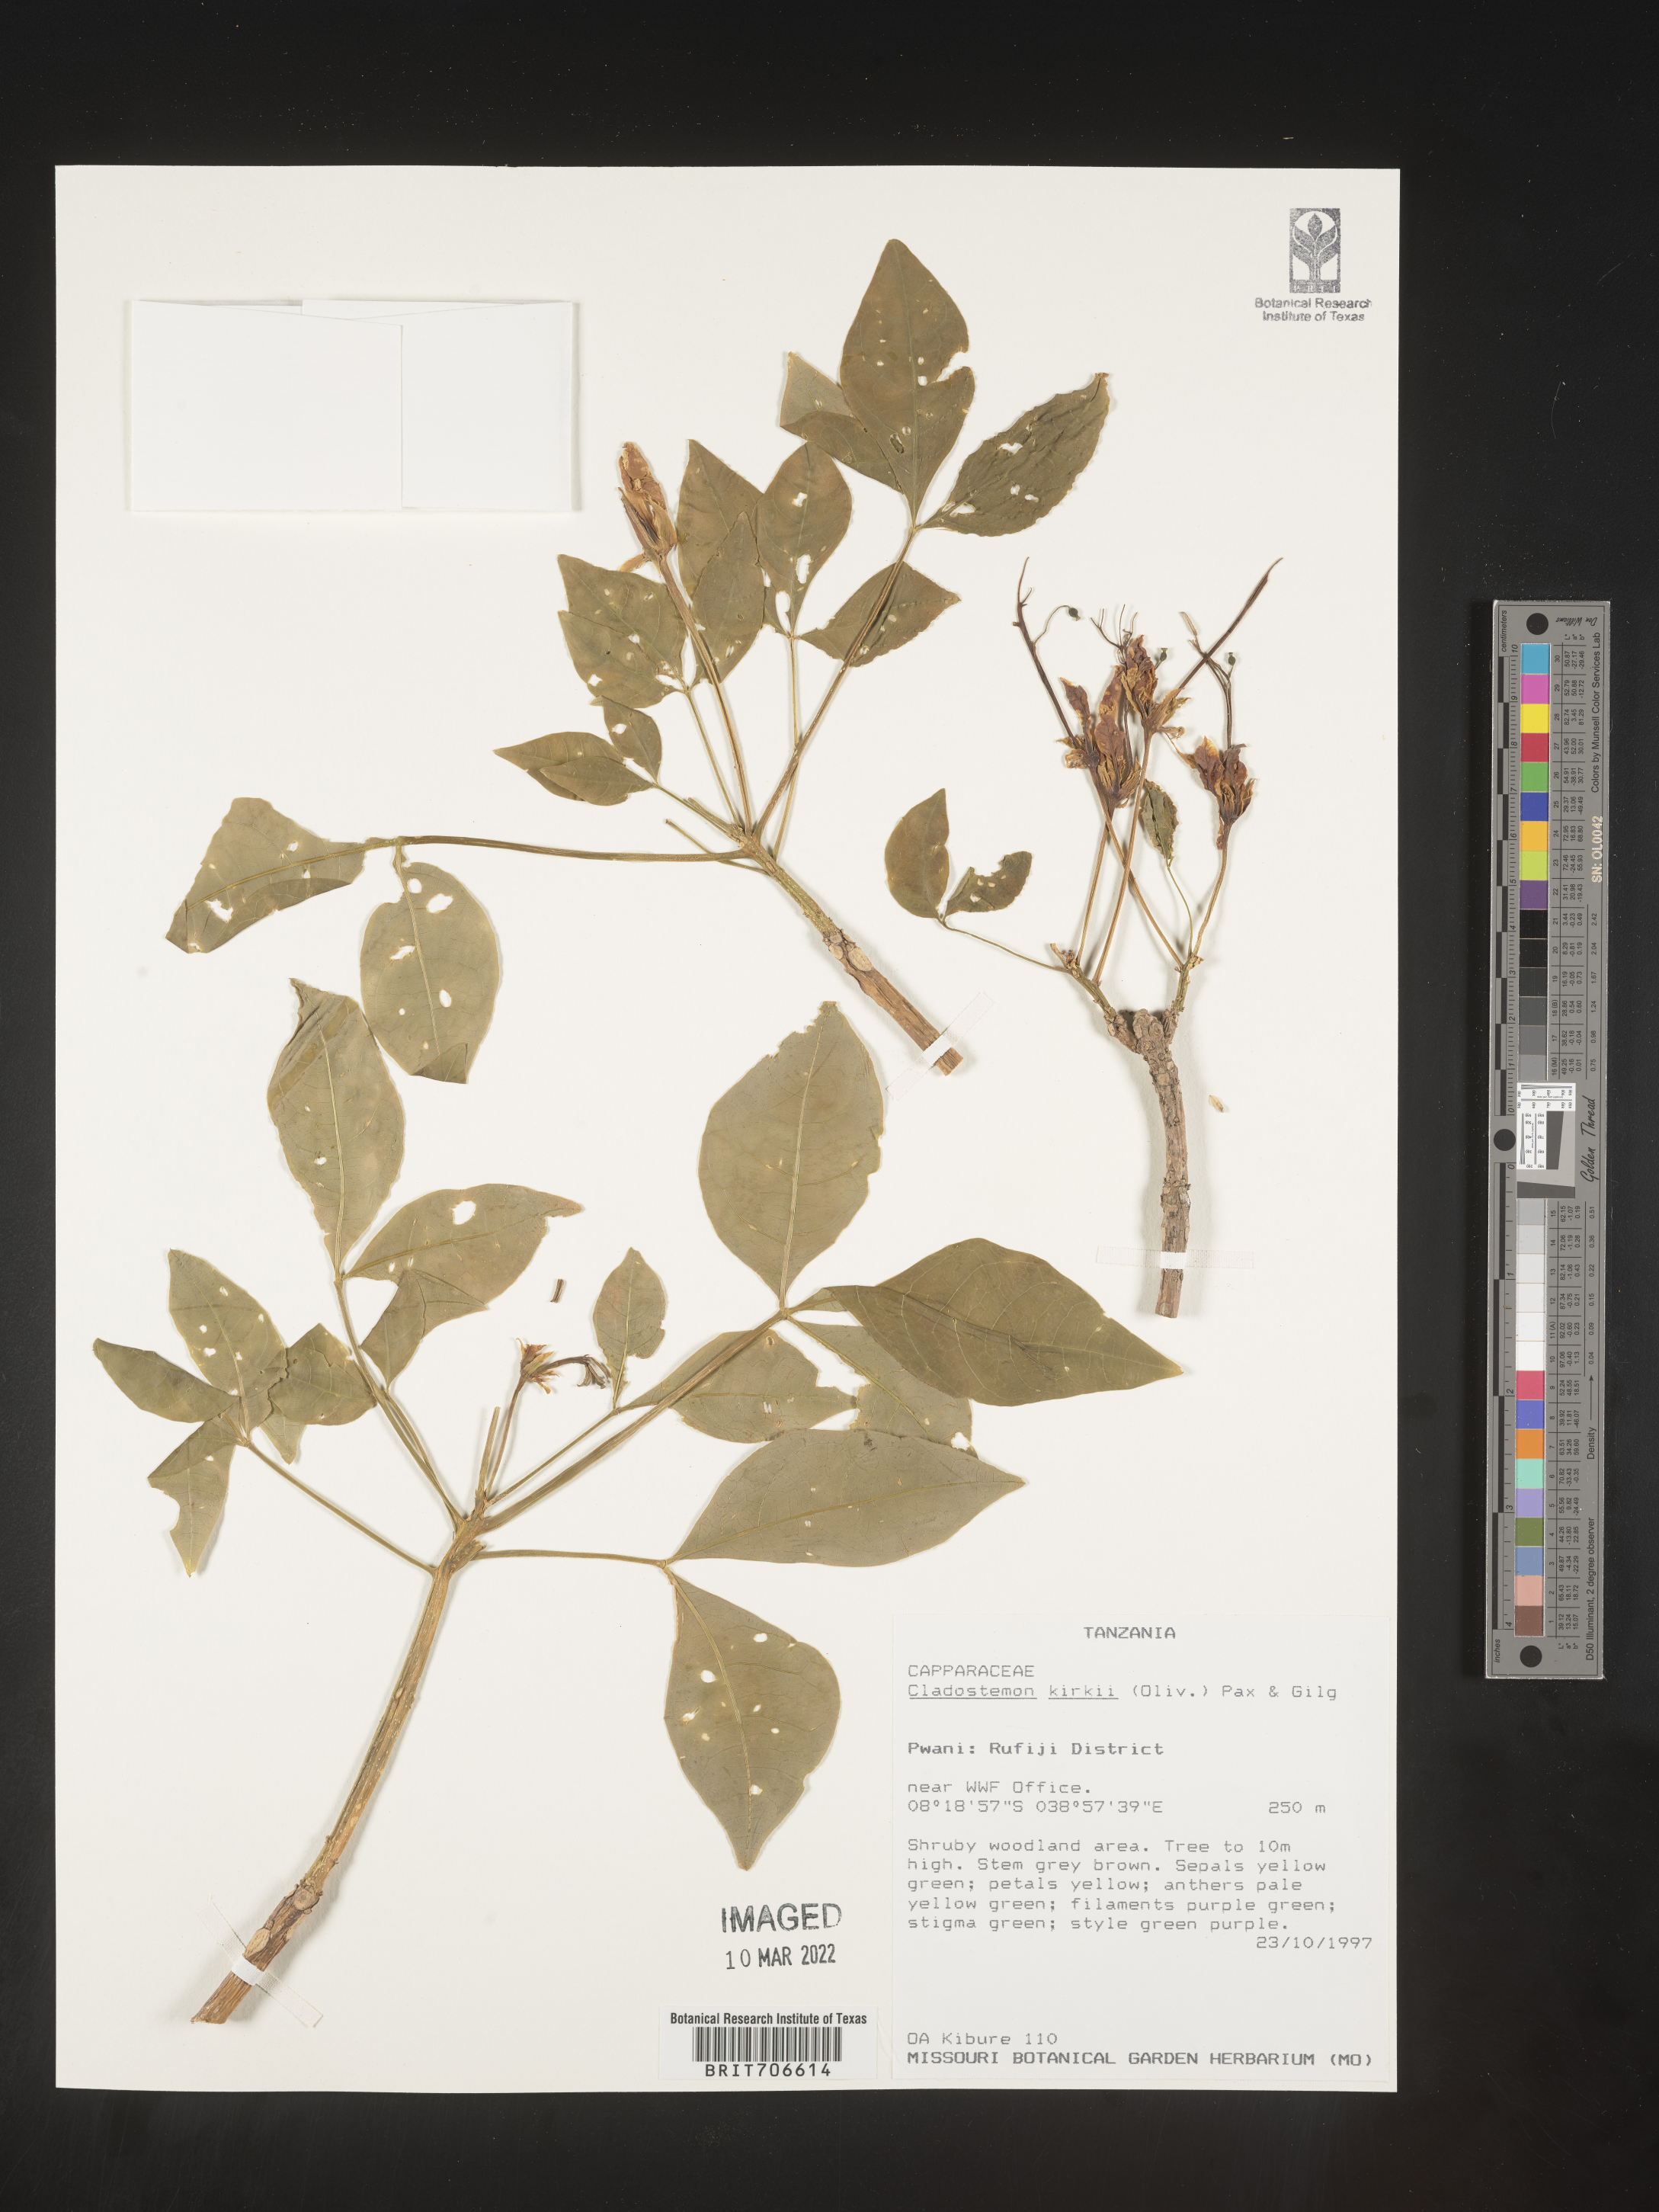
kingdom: Plantae
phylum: Tracheophyta
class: Magnoliopsida
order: Brassicales
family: Capparaceae
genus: Cladostemon
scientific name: Cladostemon
